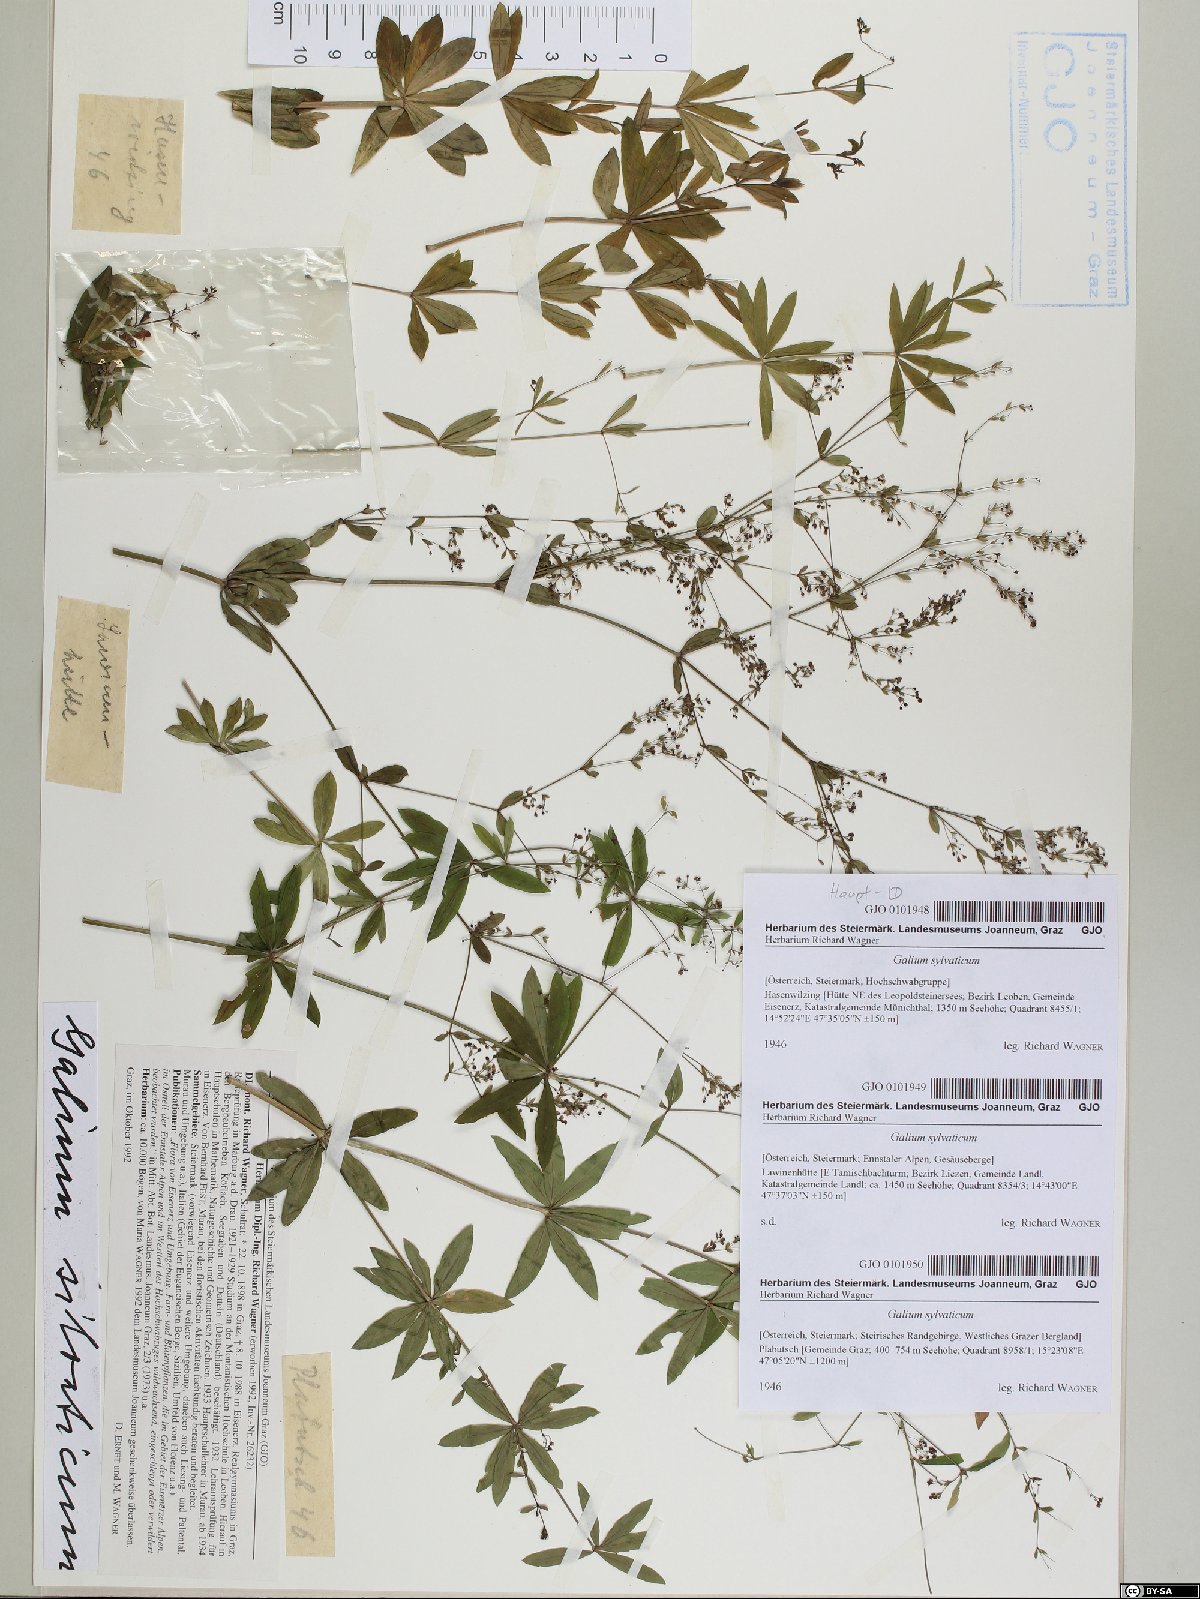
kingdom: Plantae
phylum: Tracheophyta
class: Magnoliopsida
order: Gentianales
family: Rubiaceae
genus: Galium
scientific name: Galium sylvaticum
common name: Wood bedstraw
